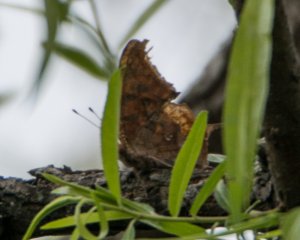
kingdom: Animalia
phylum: Arthropoda
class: Insecta
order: Lepidoptera
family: Nymphalidae
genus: Polygonia
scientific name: Polygonia interrogationis
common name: Question Mark
